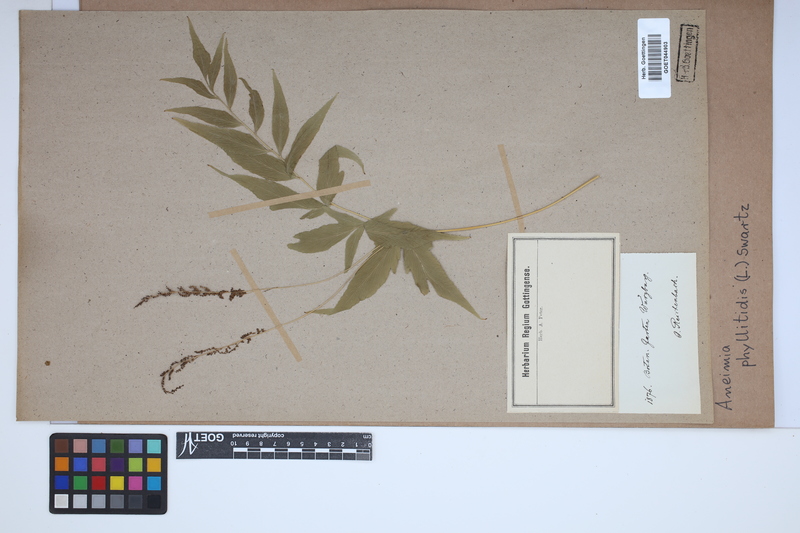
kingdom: Plantae
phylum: Tracheophyta
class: Polypodiopsida
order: Schizaeales
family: Anemiaceae
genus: Anemia
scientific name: Anemia phyllitidis
